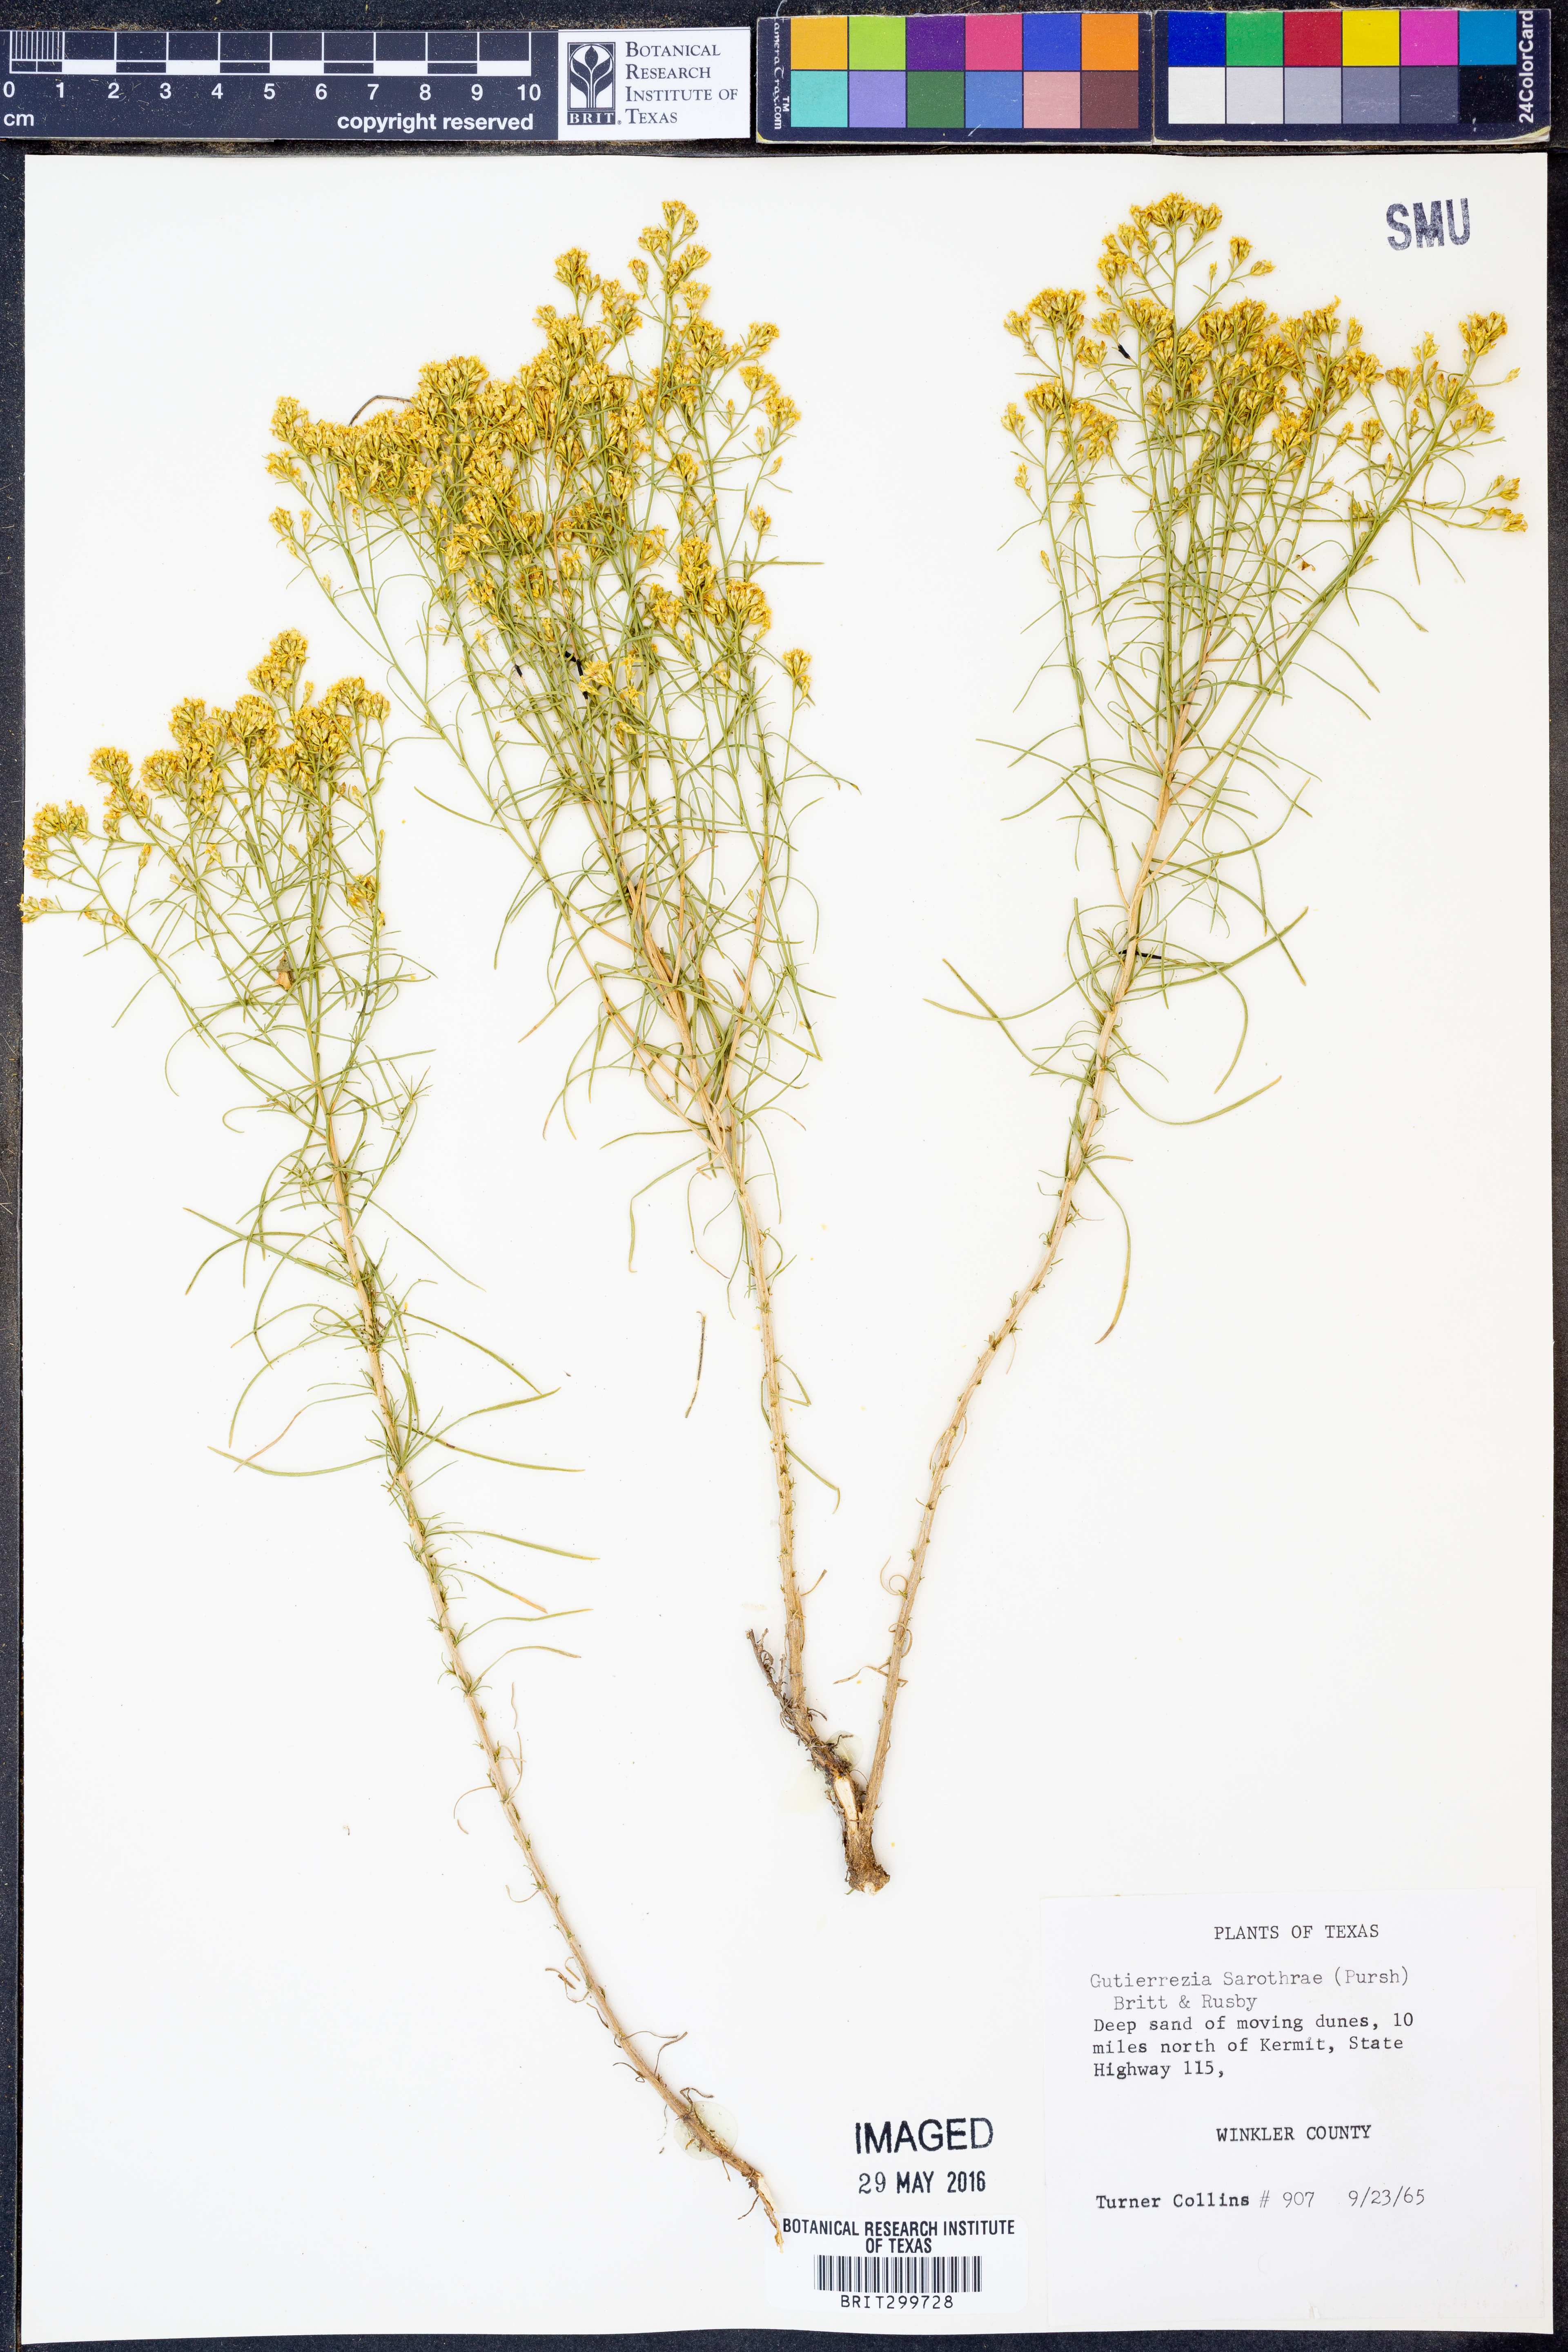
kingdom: Plantae
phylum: Tracheophyta
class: Magnoliopsida
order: Asterales
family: Asteraceae
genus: Gutierrezia
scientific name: Gutierrezia sarothrae
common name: Broom snakeweed
